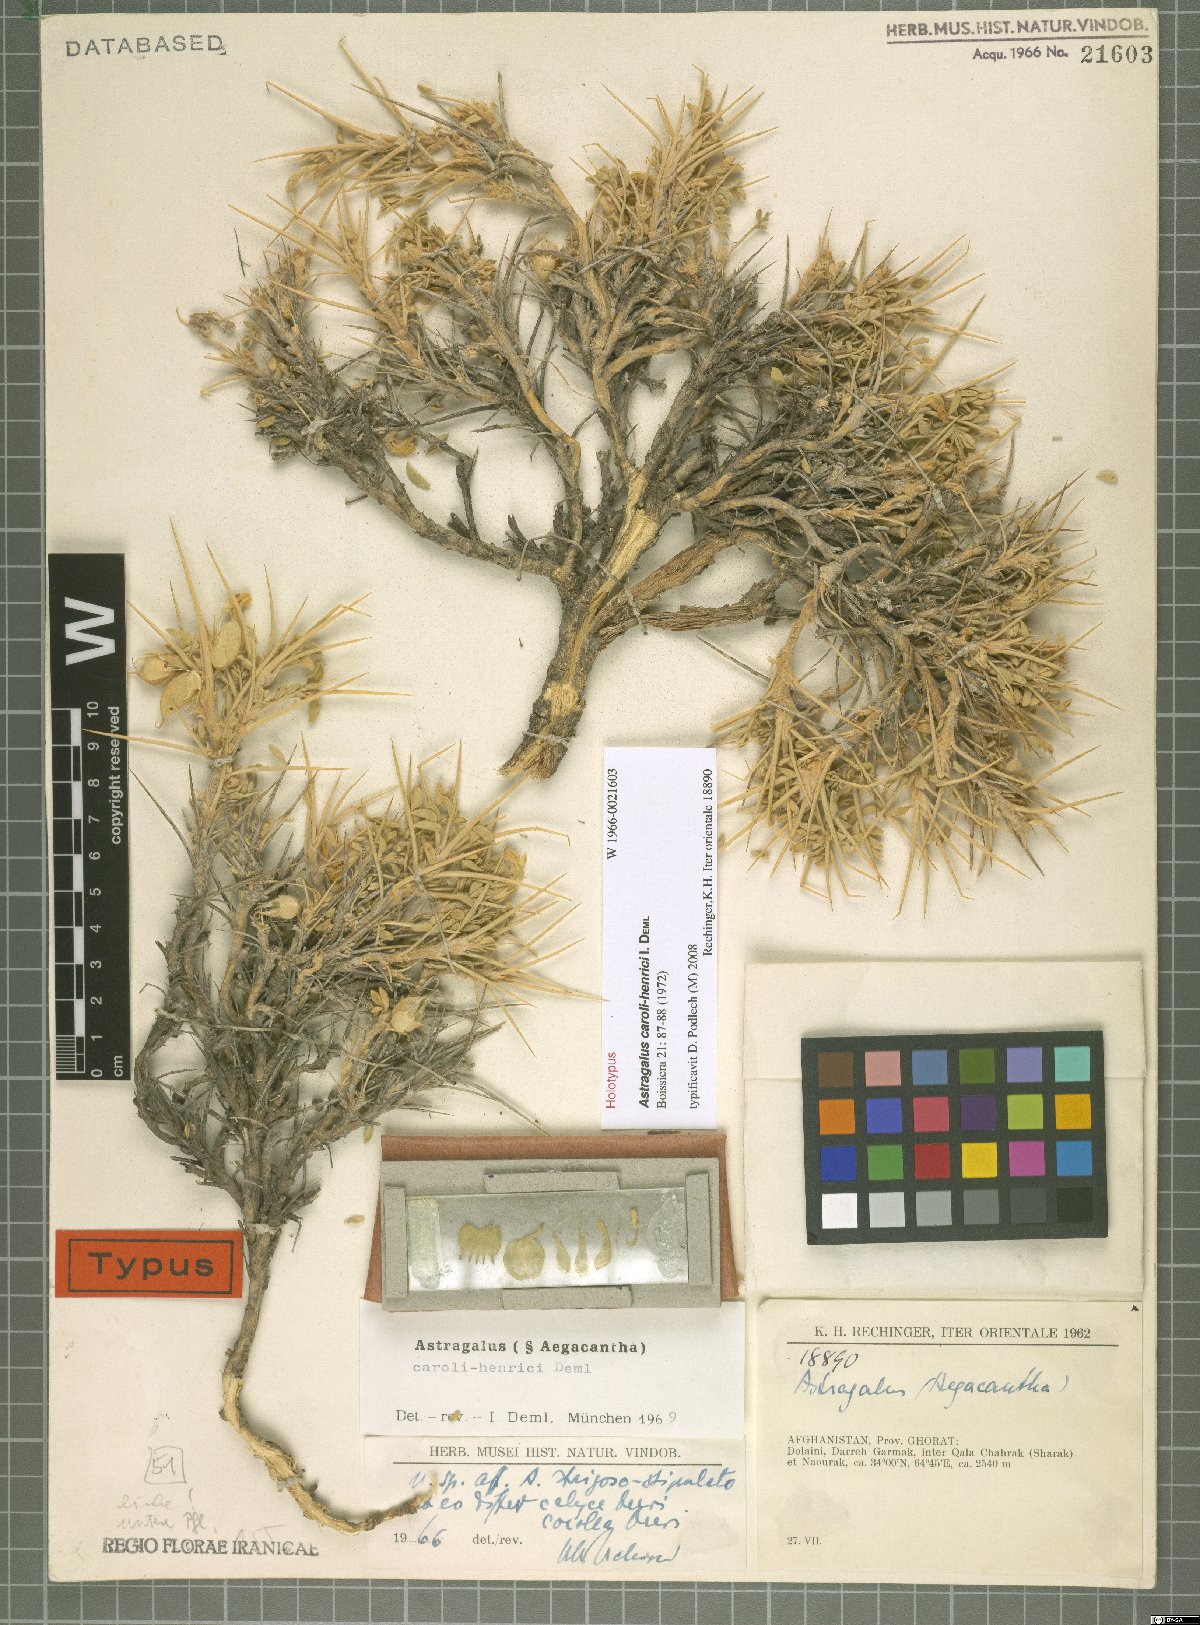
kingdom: Plantae
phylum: Tracheophyta
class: Magnoliopsida
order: Fabales
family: Fabaceae
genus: Astragalus
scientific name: Astragalus caroli-henrici
